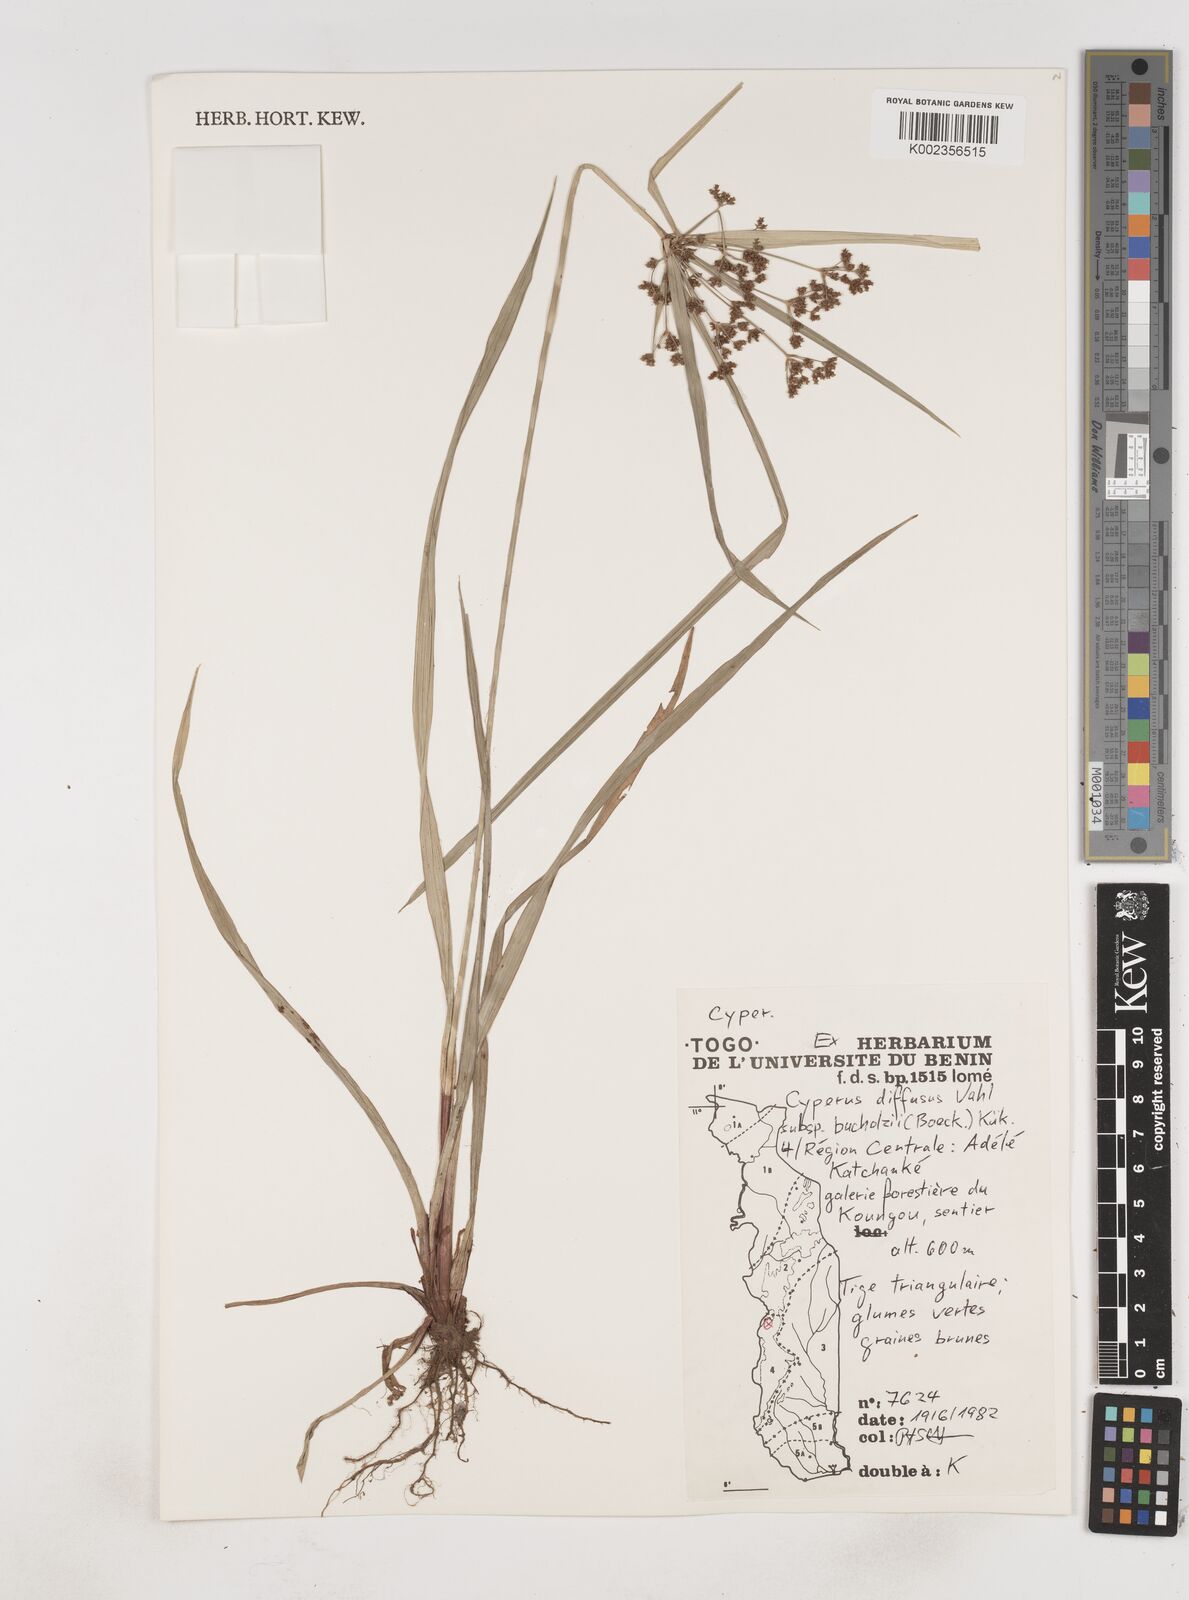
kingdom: Plantae
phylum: Tracheophyta
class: Liliopsida
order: Poales
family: Cyperaceae
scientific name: Cyperaceae
